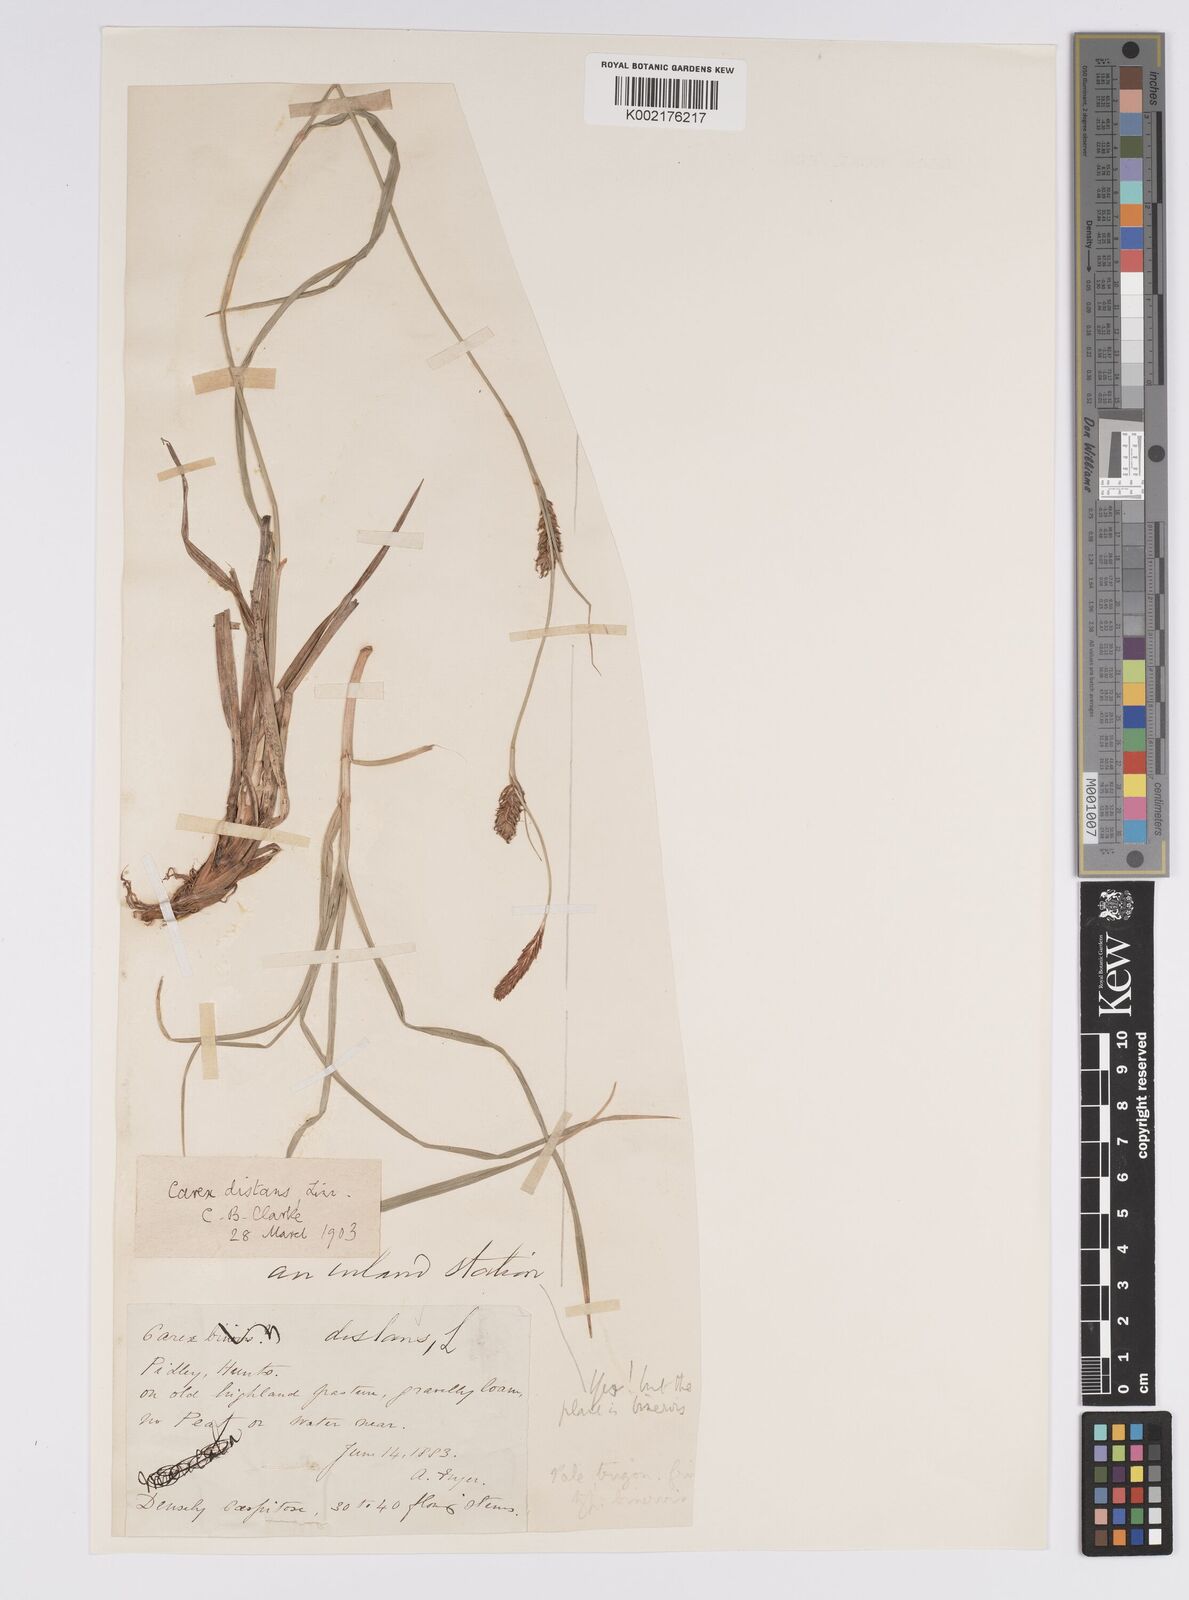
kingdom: Plantae
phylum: Tracheophyta
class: Liliopsida
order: Poales
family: Cyperaceae
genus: Carex
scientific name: Carex distans
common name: Distant sedge
